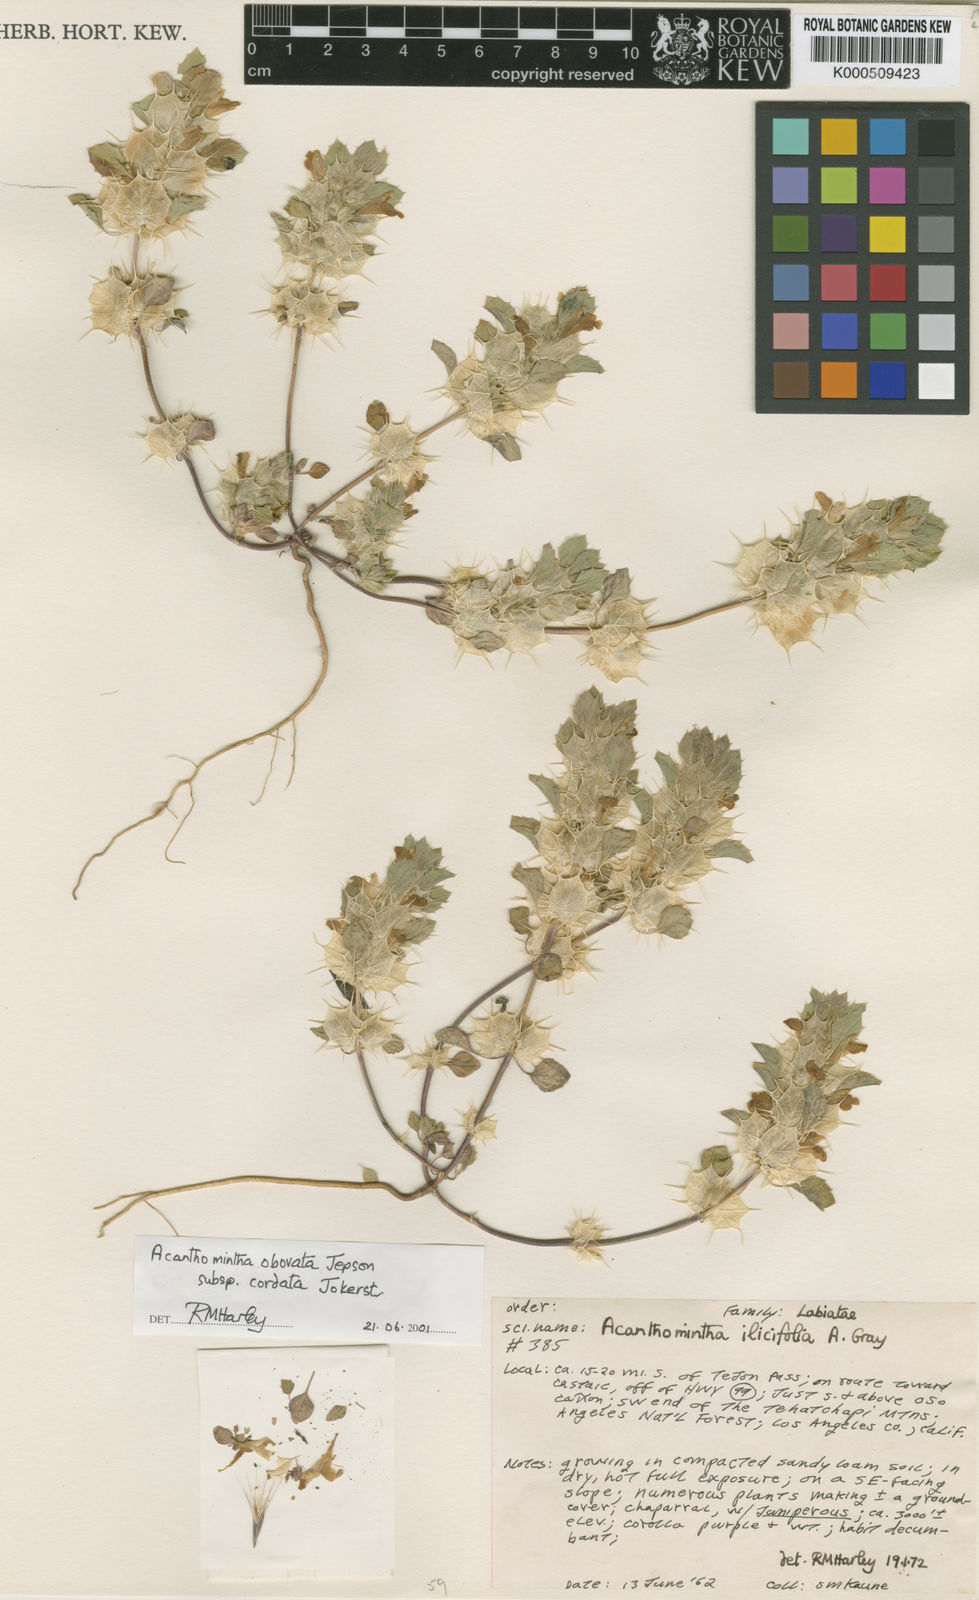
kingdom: Plantae
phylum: Tracheophyta
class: Magnoliopsida
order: Lamiales
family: Lamiaceae
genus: Acanthomintha
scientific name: Acanthomintha obovata
